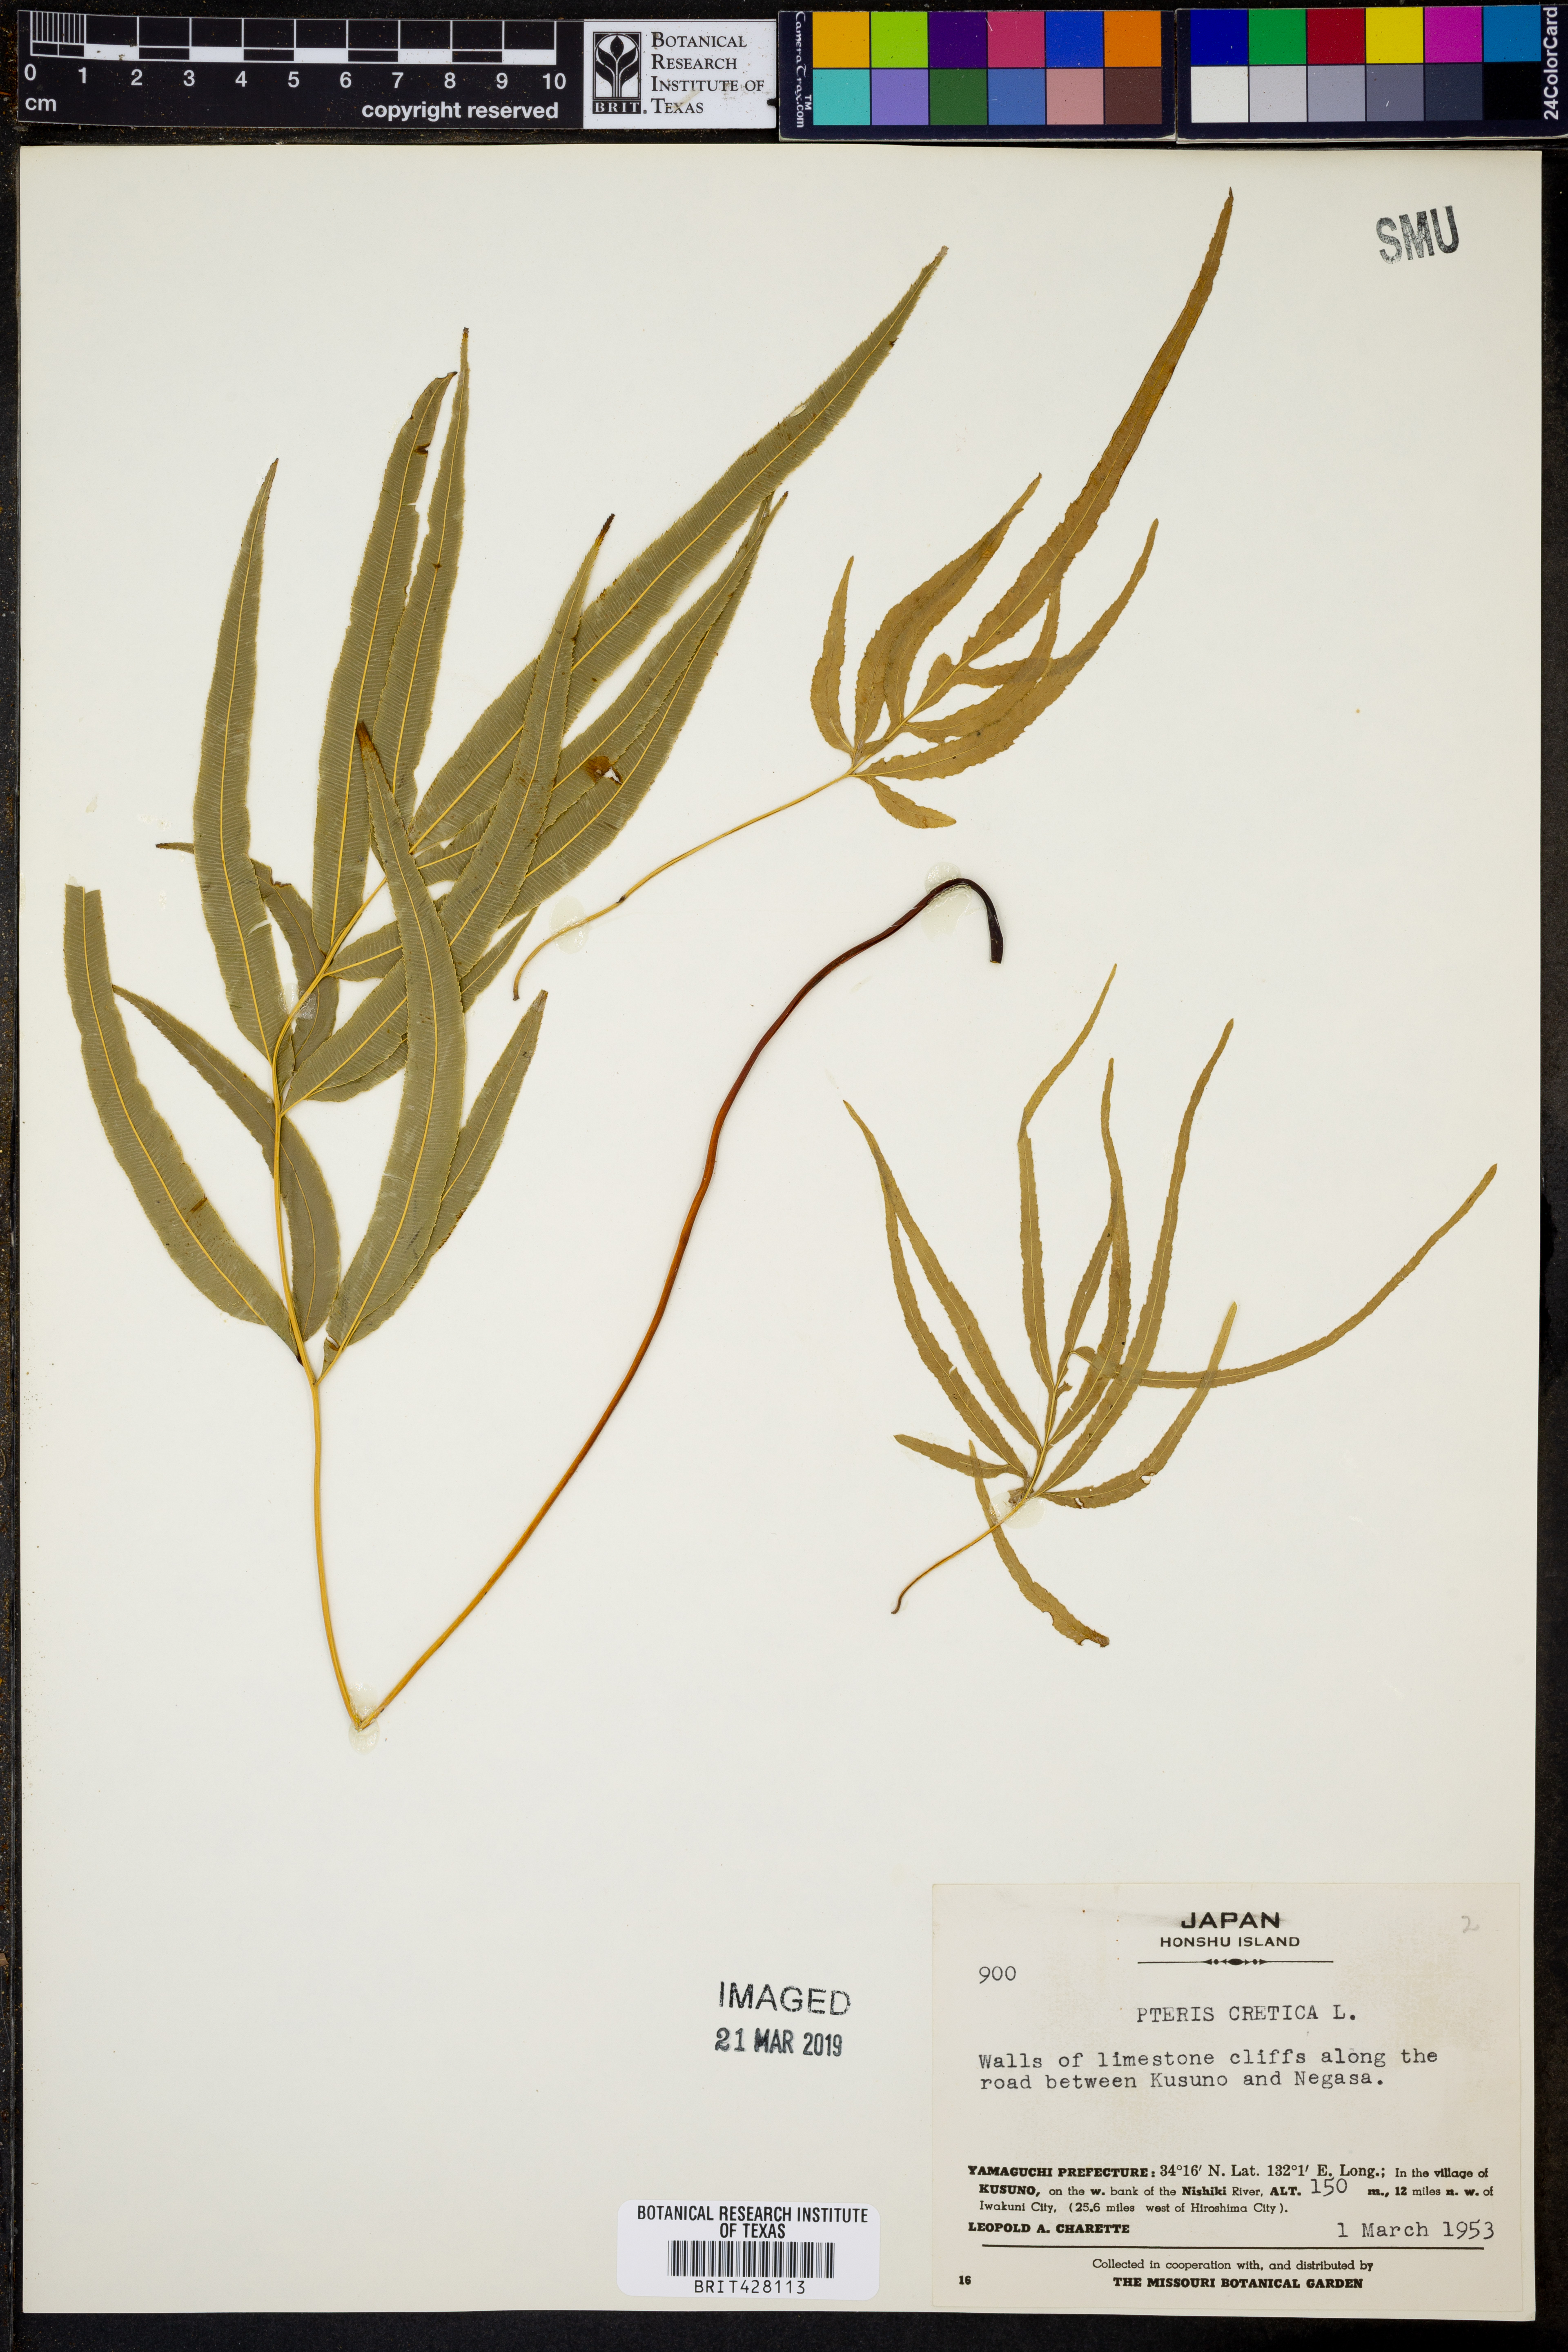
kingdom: Plantae
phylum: Tracheophyta
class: Polypodiopsida
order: Polypodiales
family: Pteridaceae
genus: Pteris
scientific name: Pteris cretica
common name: Ribbon fern
